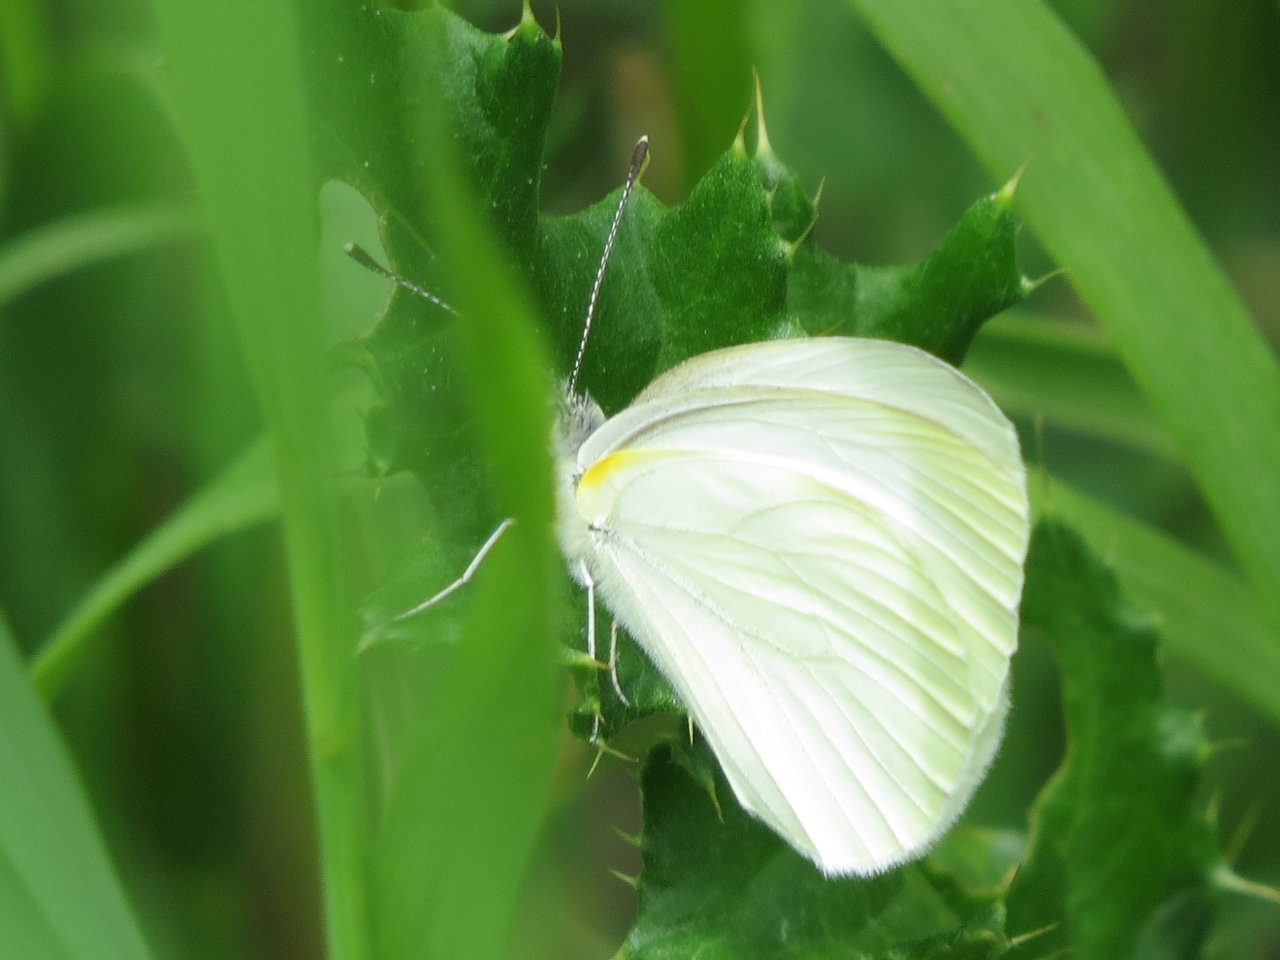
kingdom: Animalia
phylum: Arthropoda
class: Insecta
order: Lepidoptera
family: Pieridae
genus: Pieris
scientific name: Pieris oleracea
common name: Mustard White
